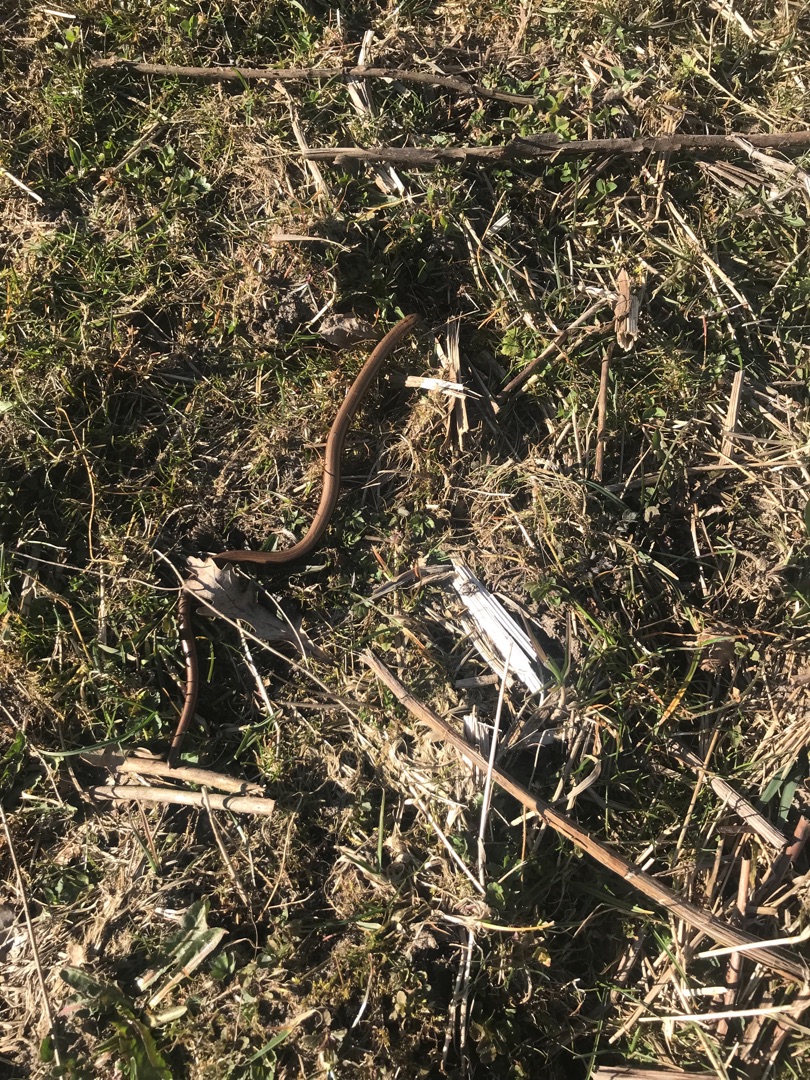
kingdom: Animalia
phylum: Chordata
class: Squamata
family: Anguidae
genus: Anguis
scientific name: Anguis fragilis
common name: Stålorm
